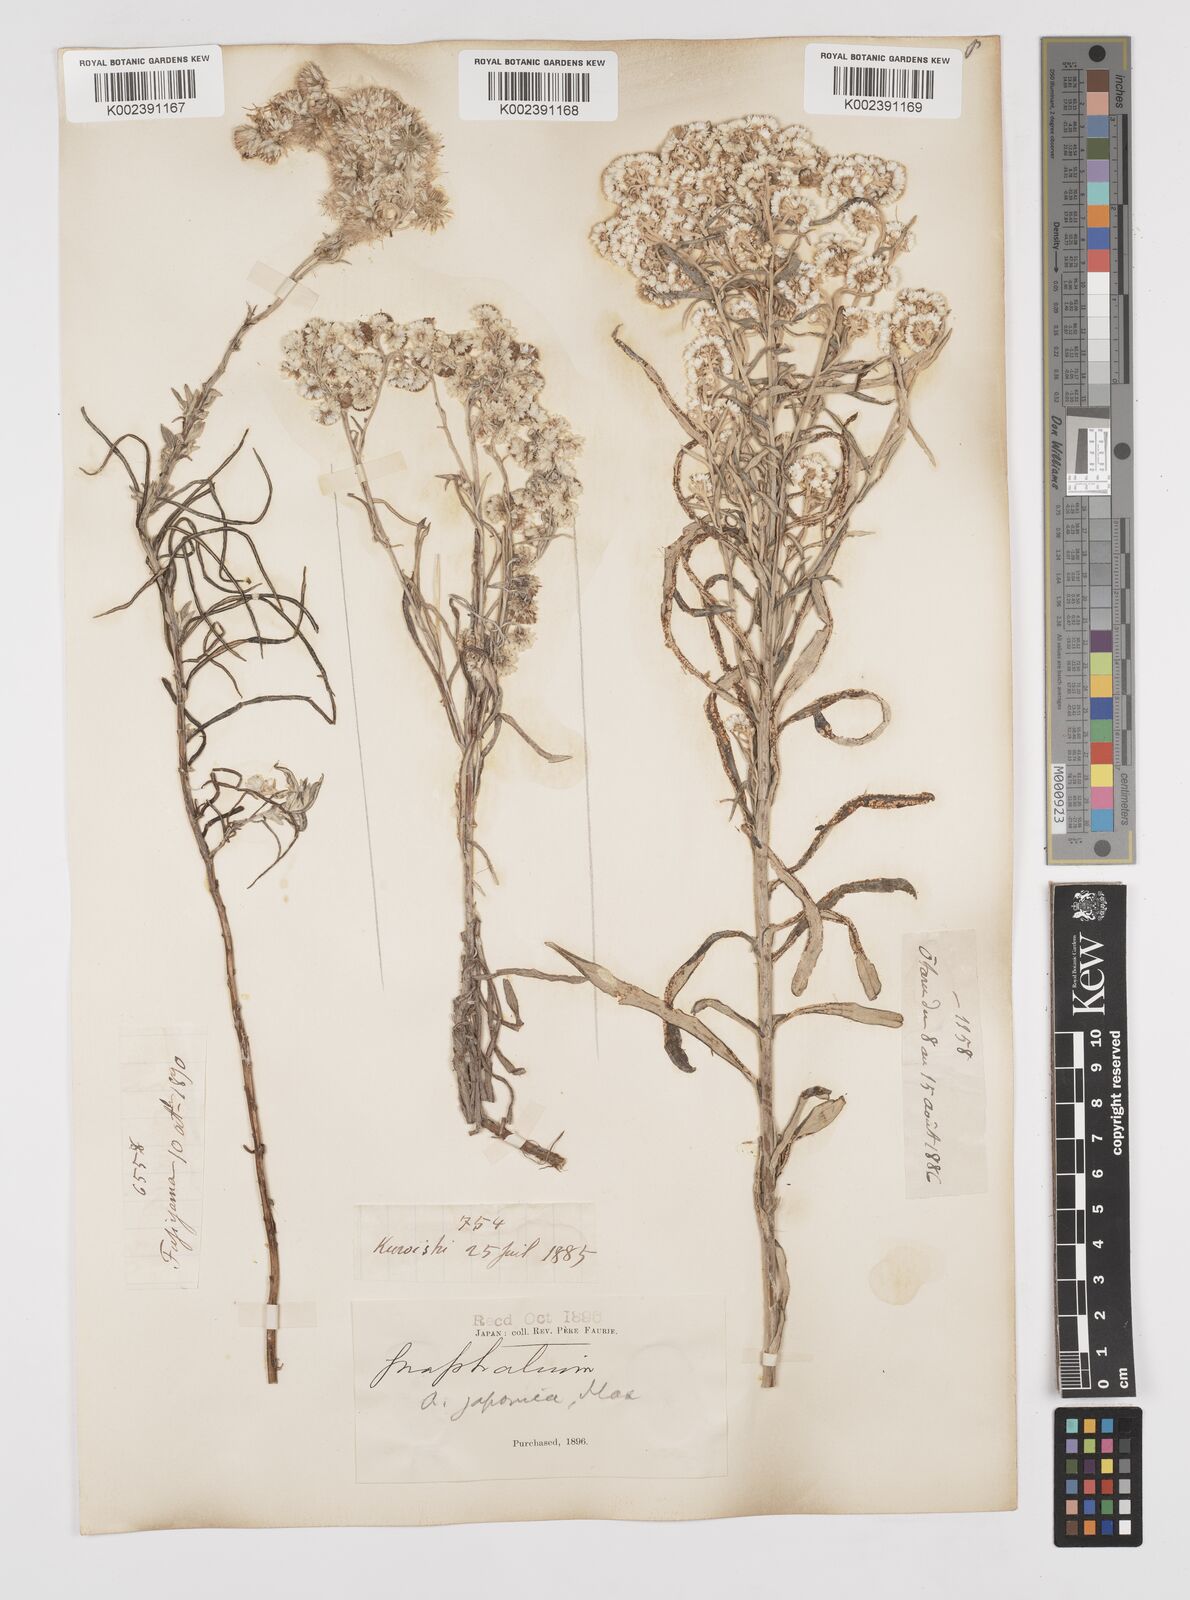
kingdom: Plantae
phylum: Tracheophyta
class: Magnoliopsida
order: Asterales
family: Asteraceae
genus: Anaphalis
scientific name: Anaphalis margaritacea
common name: Pearly everlasting
